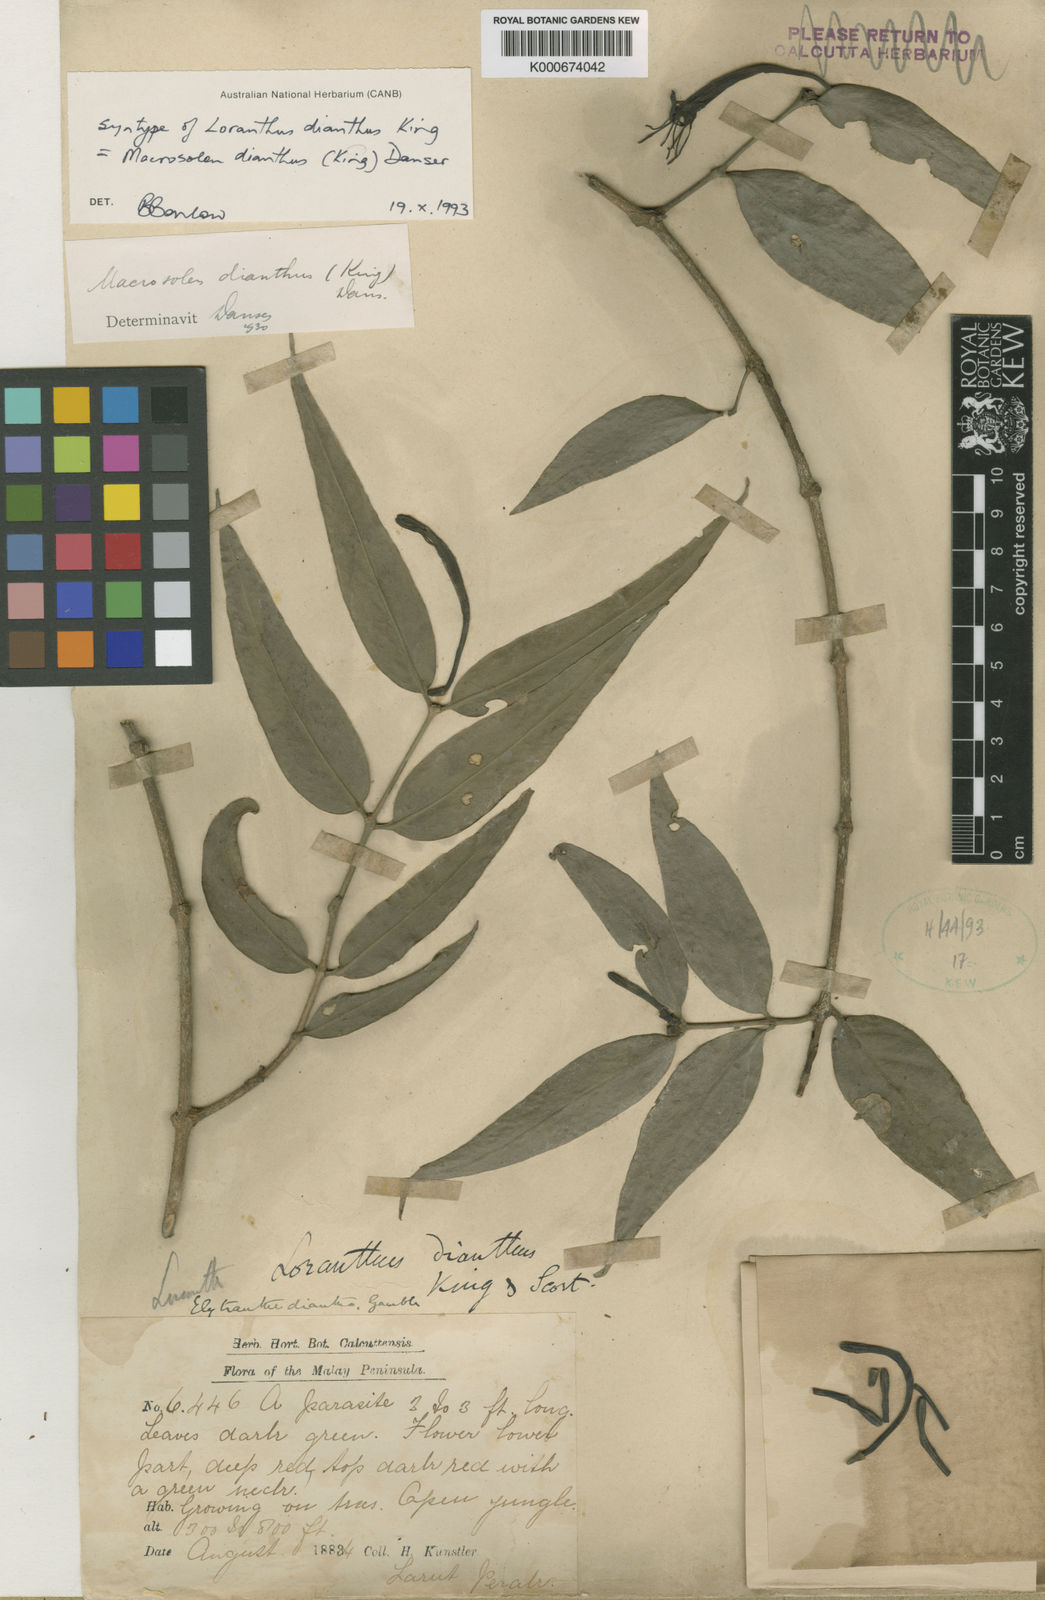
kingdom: Plantae
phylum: Tracheophyta
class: Magnoliopsida
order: Santalales
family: Loranthaceae
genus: Macrosolen
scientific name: Macrosolen dianthus
